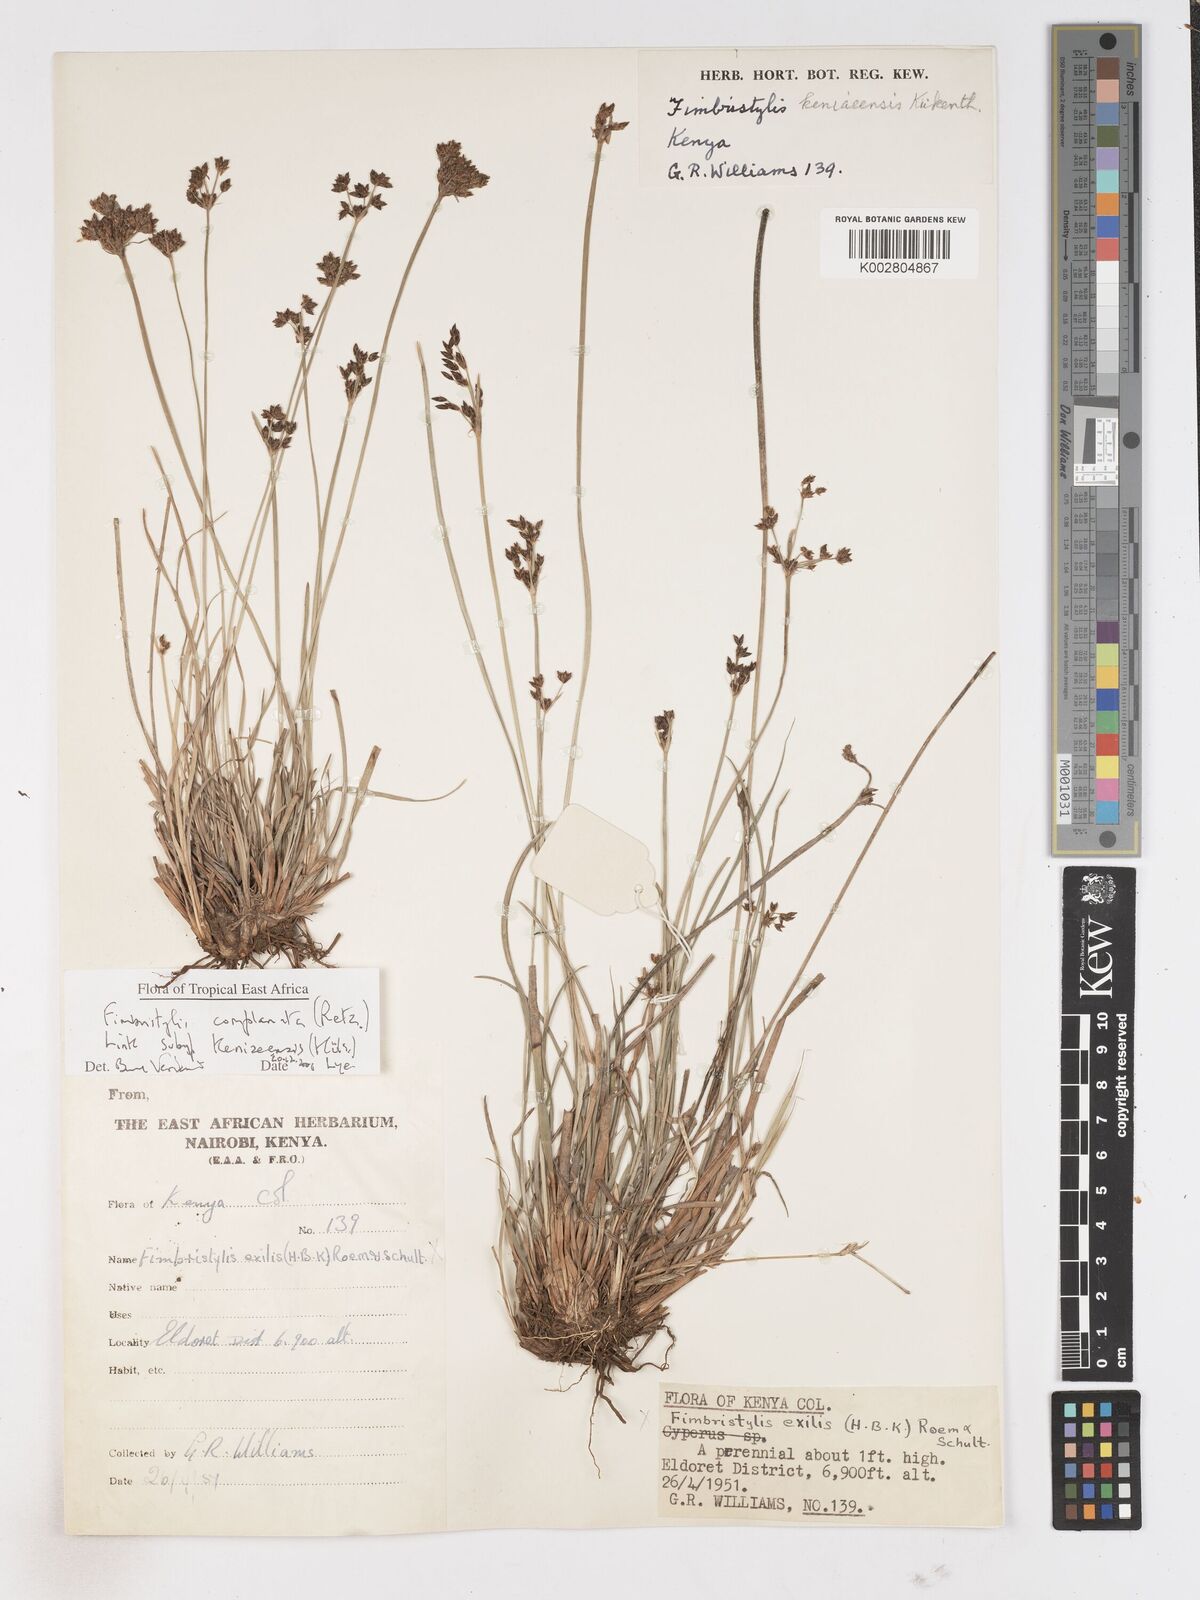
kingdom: Plantae
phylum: Tracheophyta
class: Liliopsida
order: Poales
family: Cyperaceae
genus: Fimbristylis
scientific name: Fimbristylis complanata
